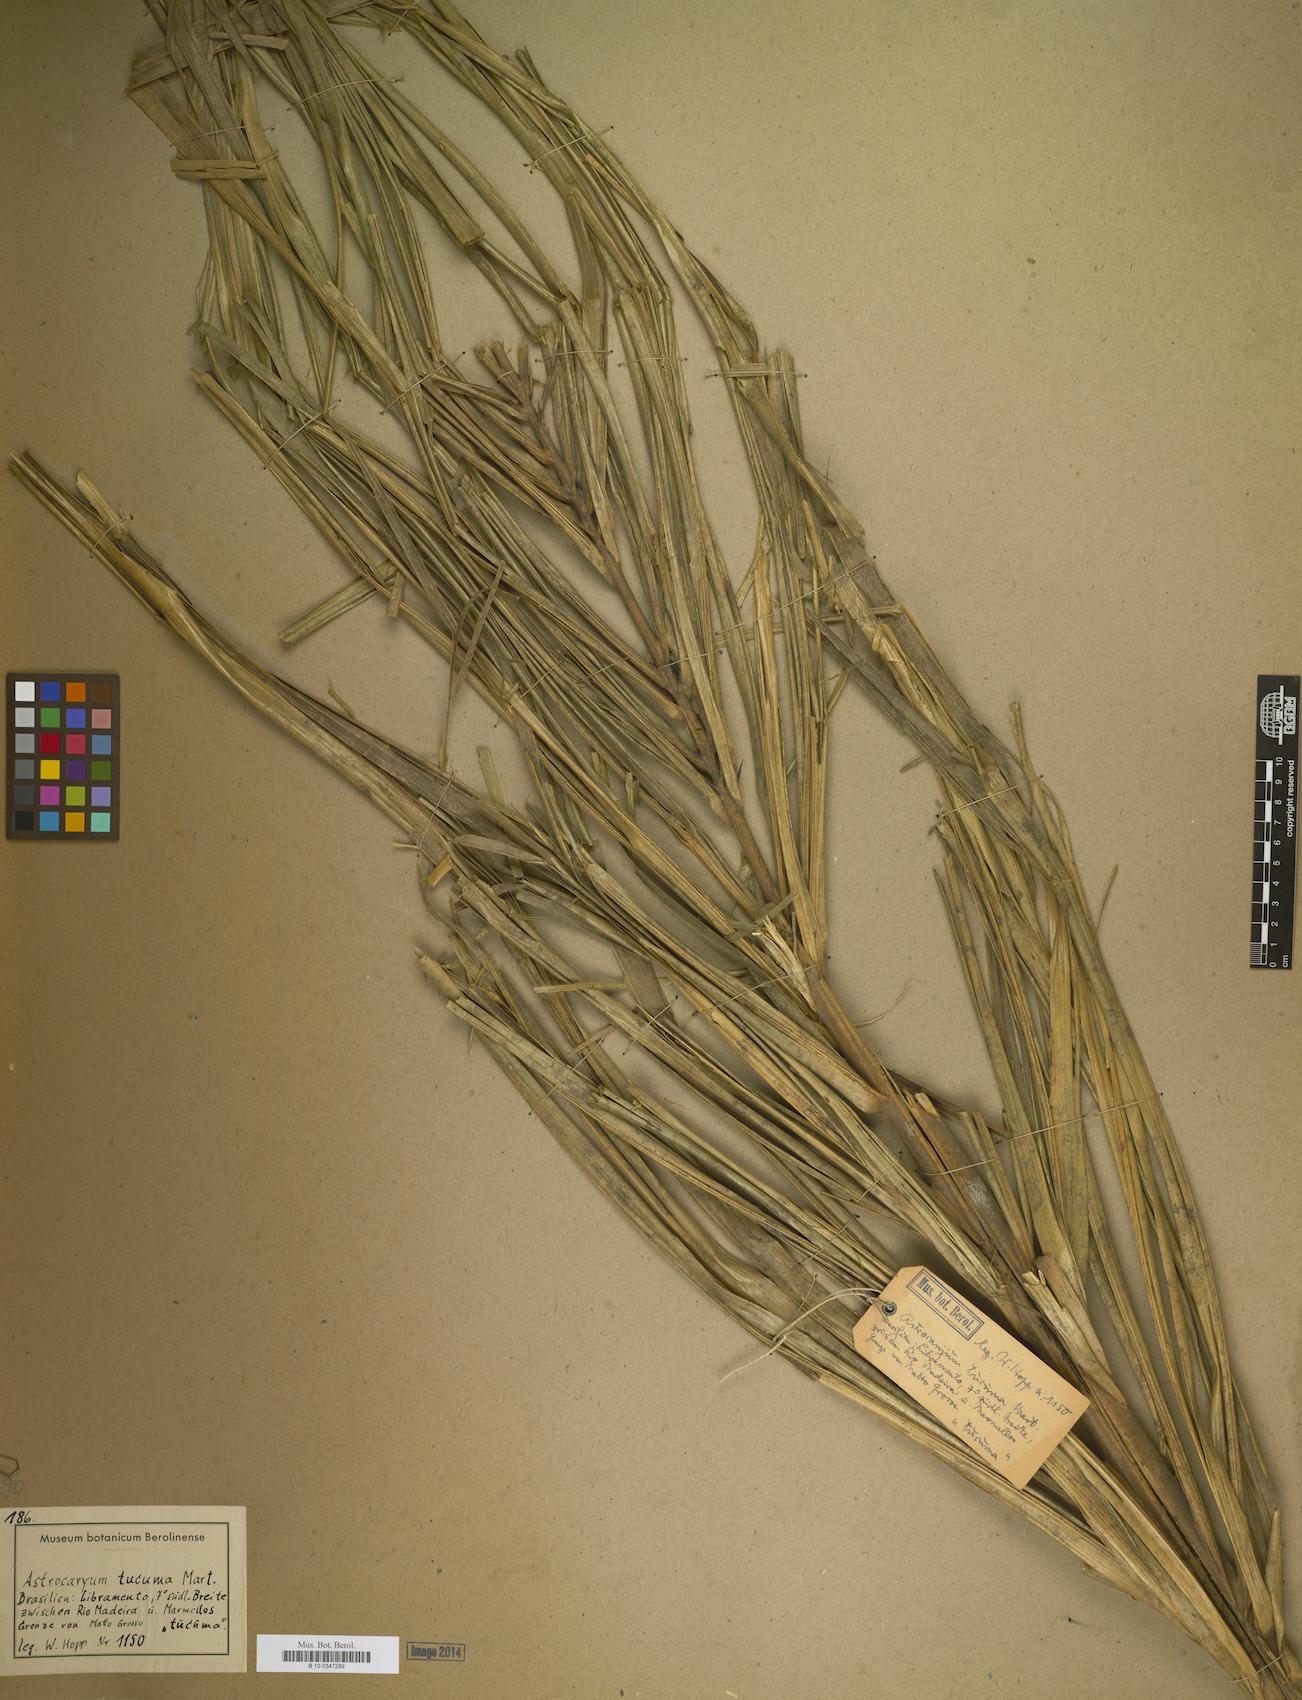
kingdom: Plantae
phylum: Tracheophyta
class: Liliopsida
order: Arecales
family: Arecaceae
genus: Astrocaryum
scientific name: Astrocaryum tucuma
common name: Tucum palm
